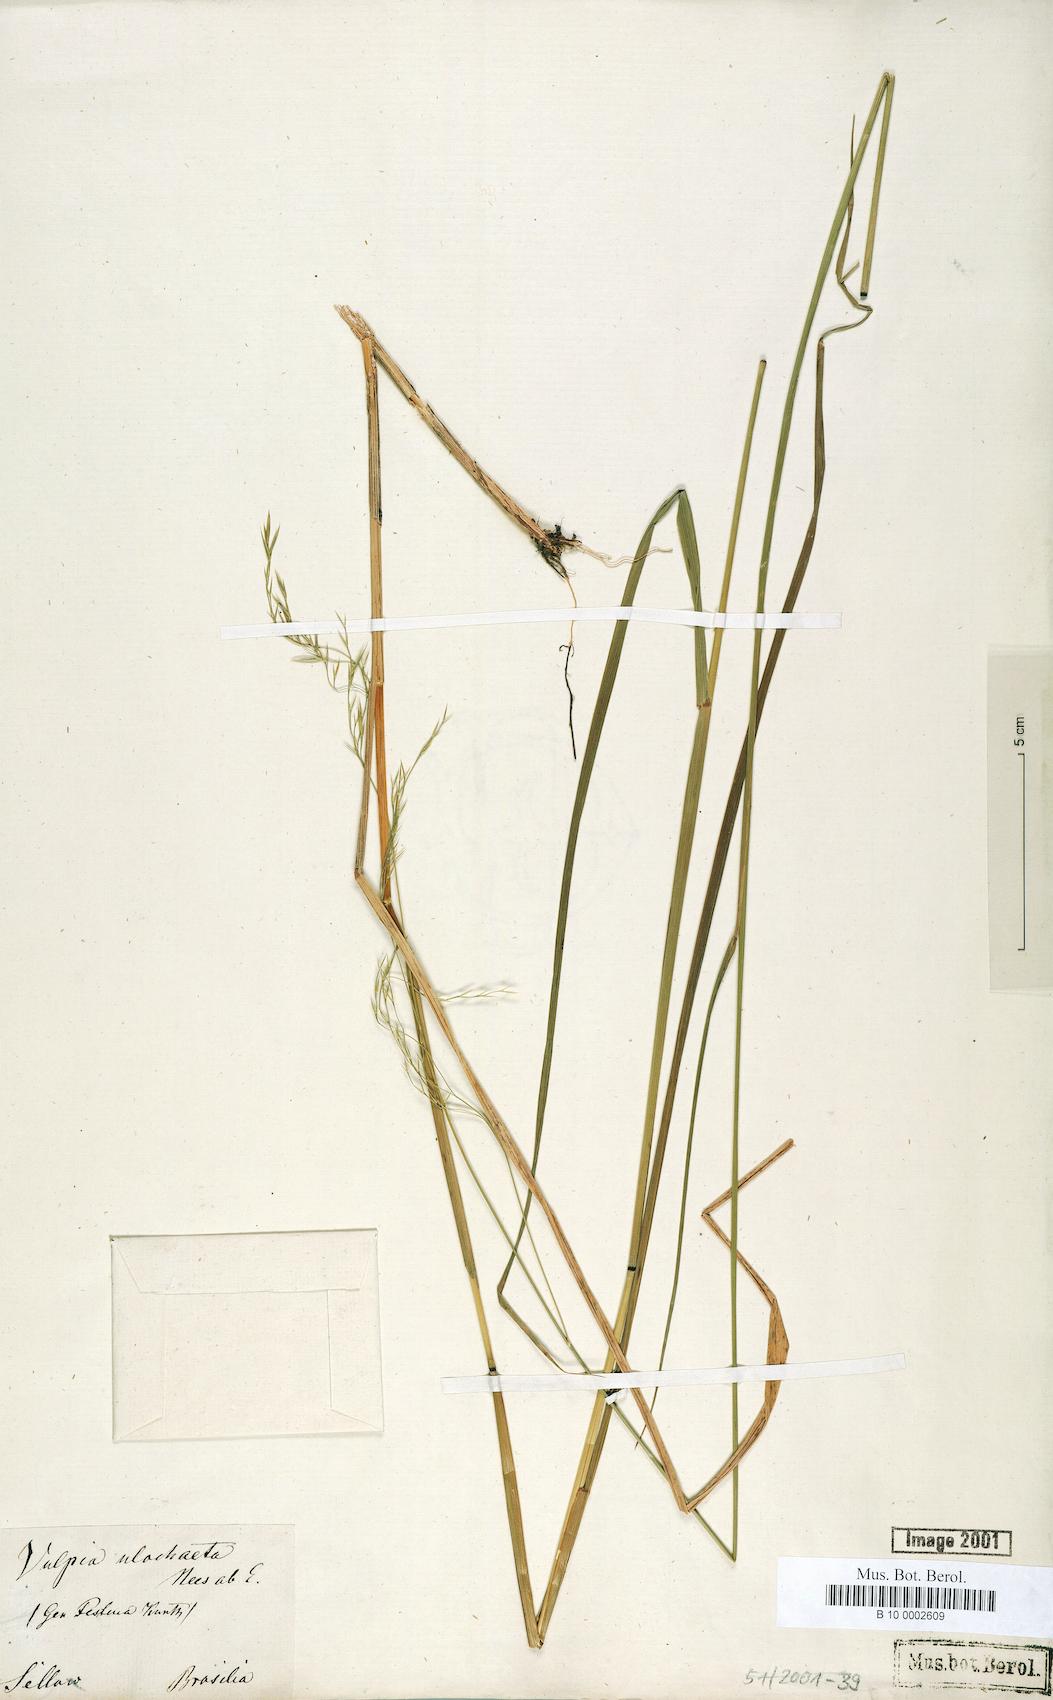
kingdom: Plantae
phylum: Tracheophyta
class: Liliopsida
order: Poales
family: Poaceae
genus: Festuca
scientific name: Festuca ulochaeta
